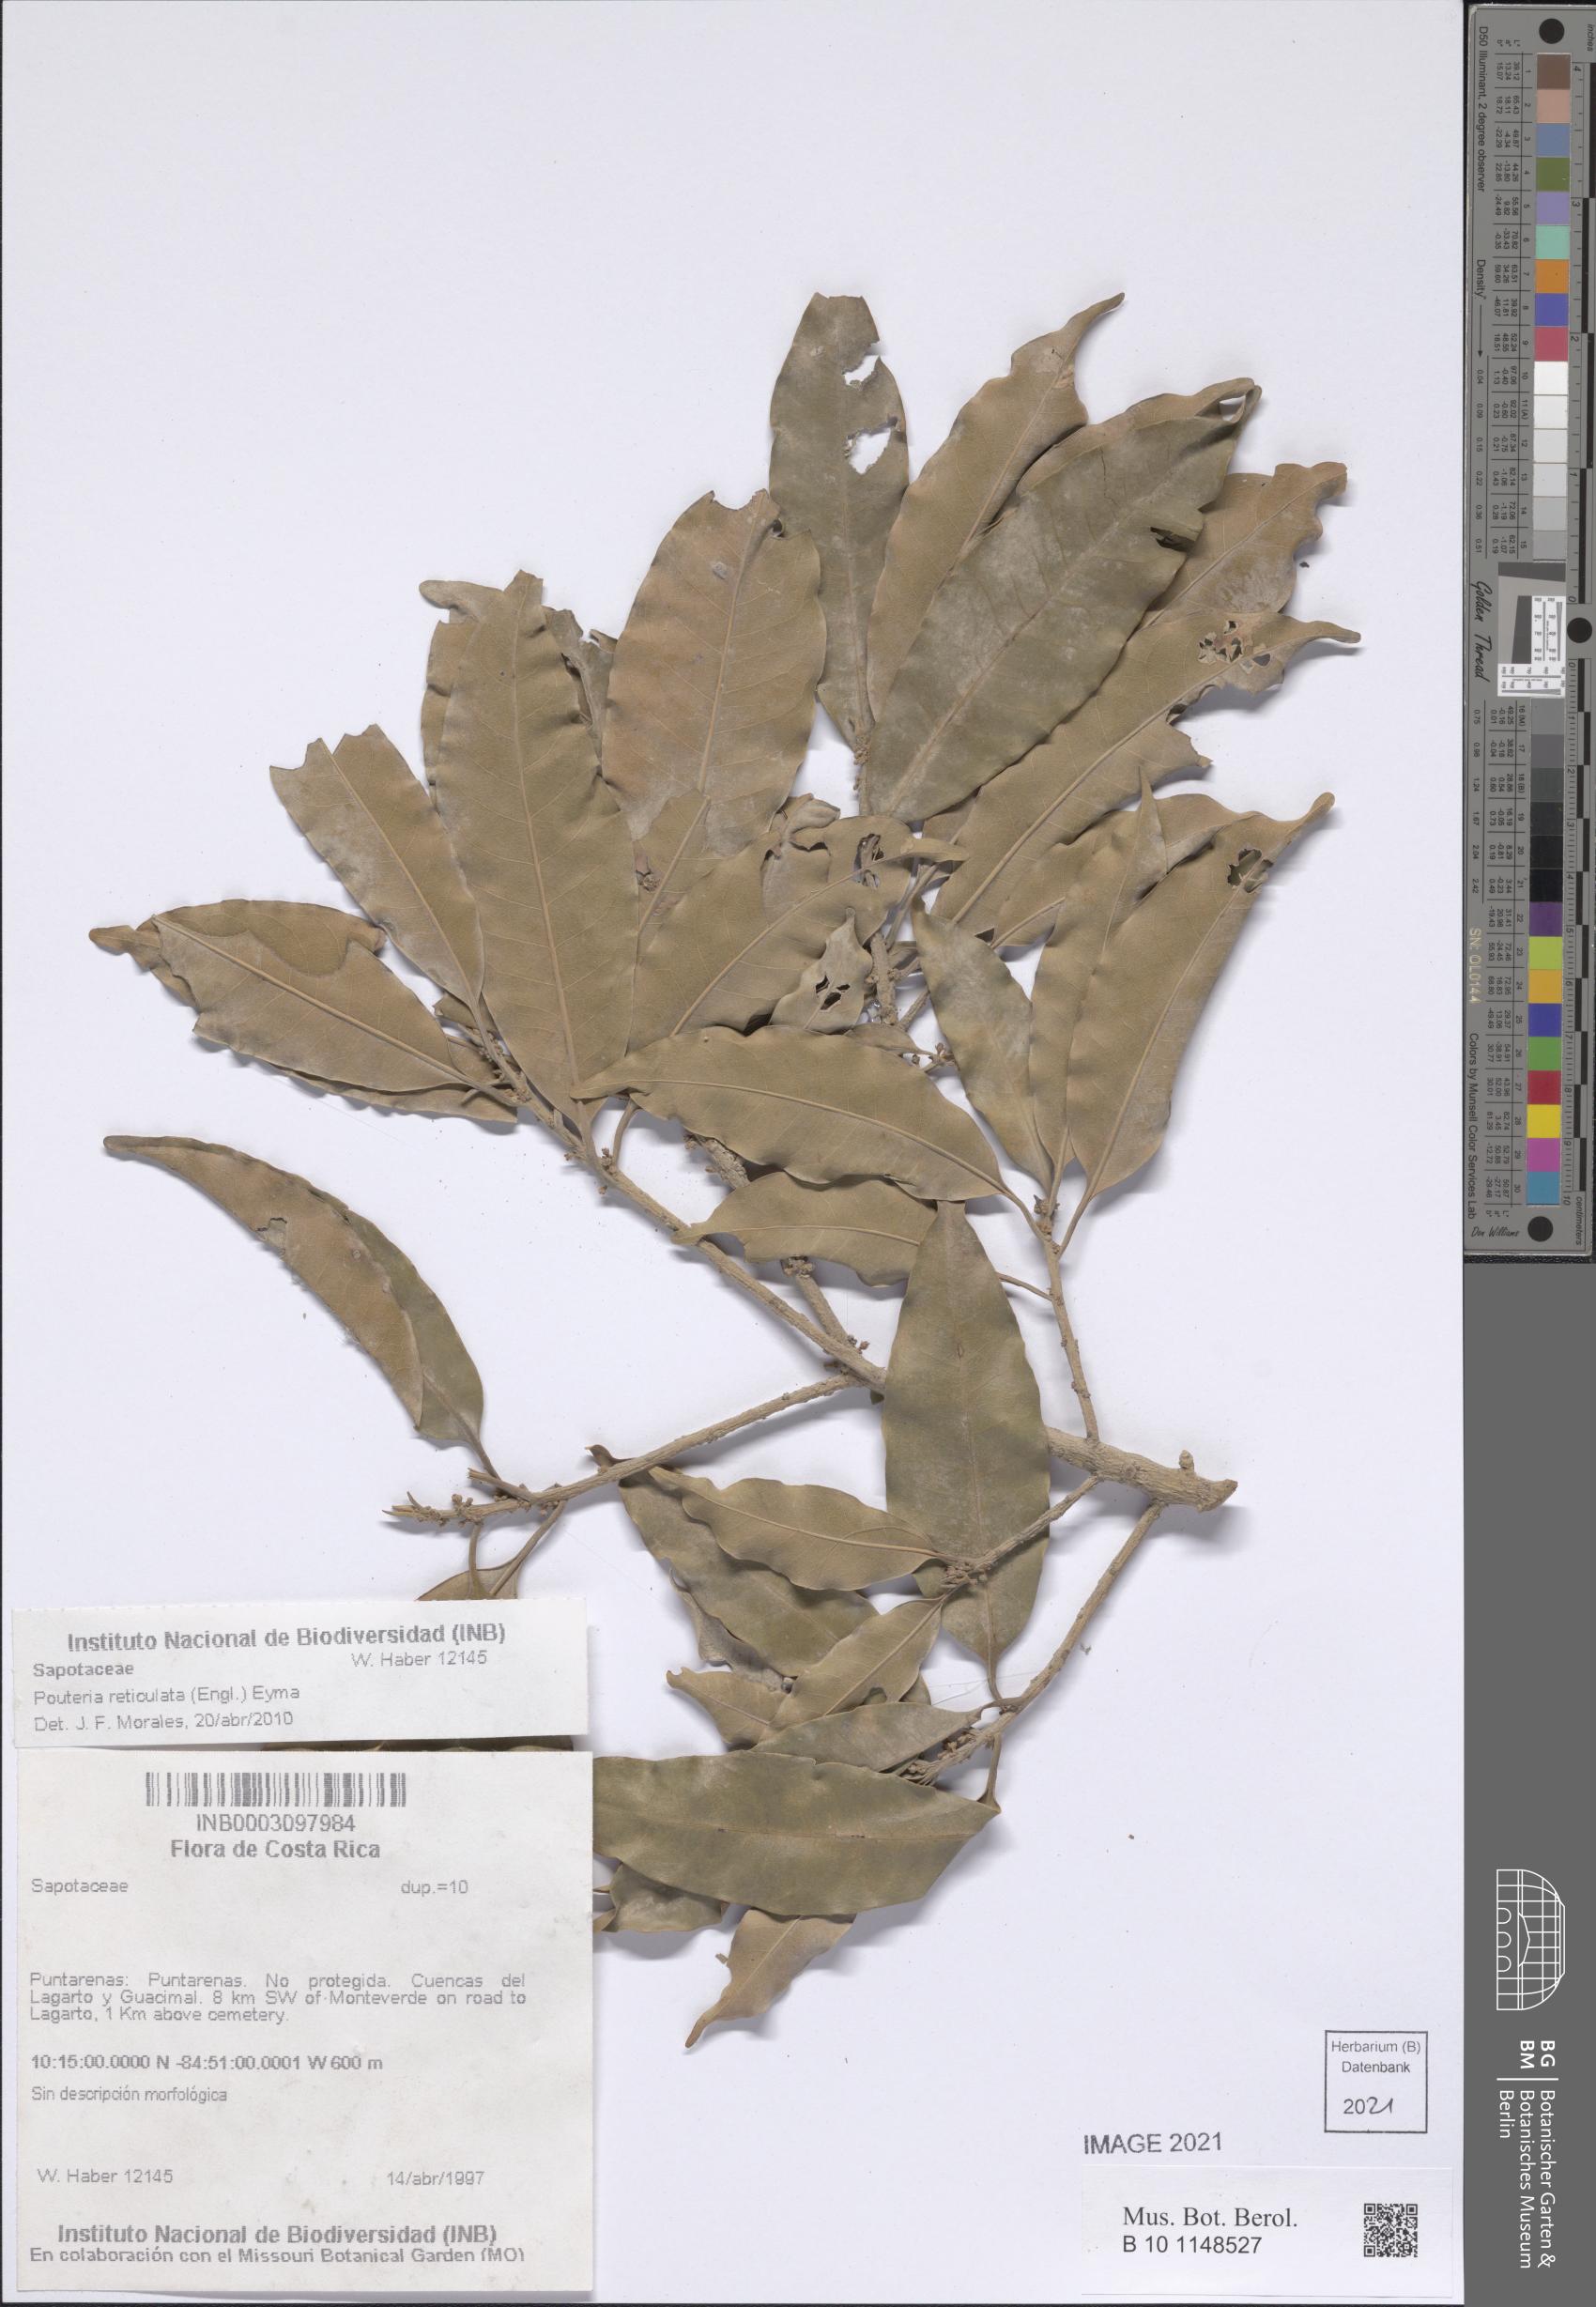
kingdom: Plantae
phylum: Tracheophyta
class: Magnoliopsida
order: Ericales
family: Sapotaceae
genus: Pouteria
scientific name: Pouteria reticulata
